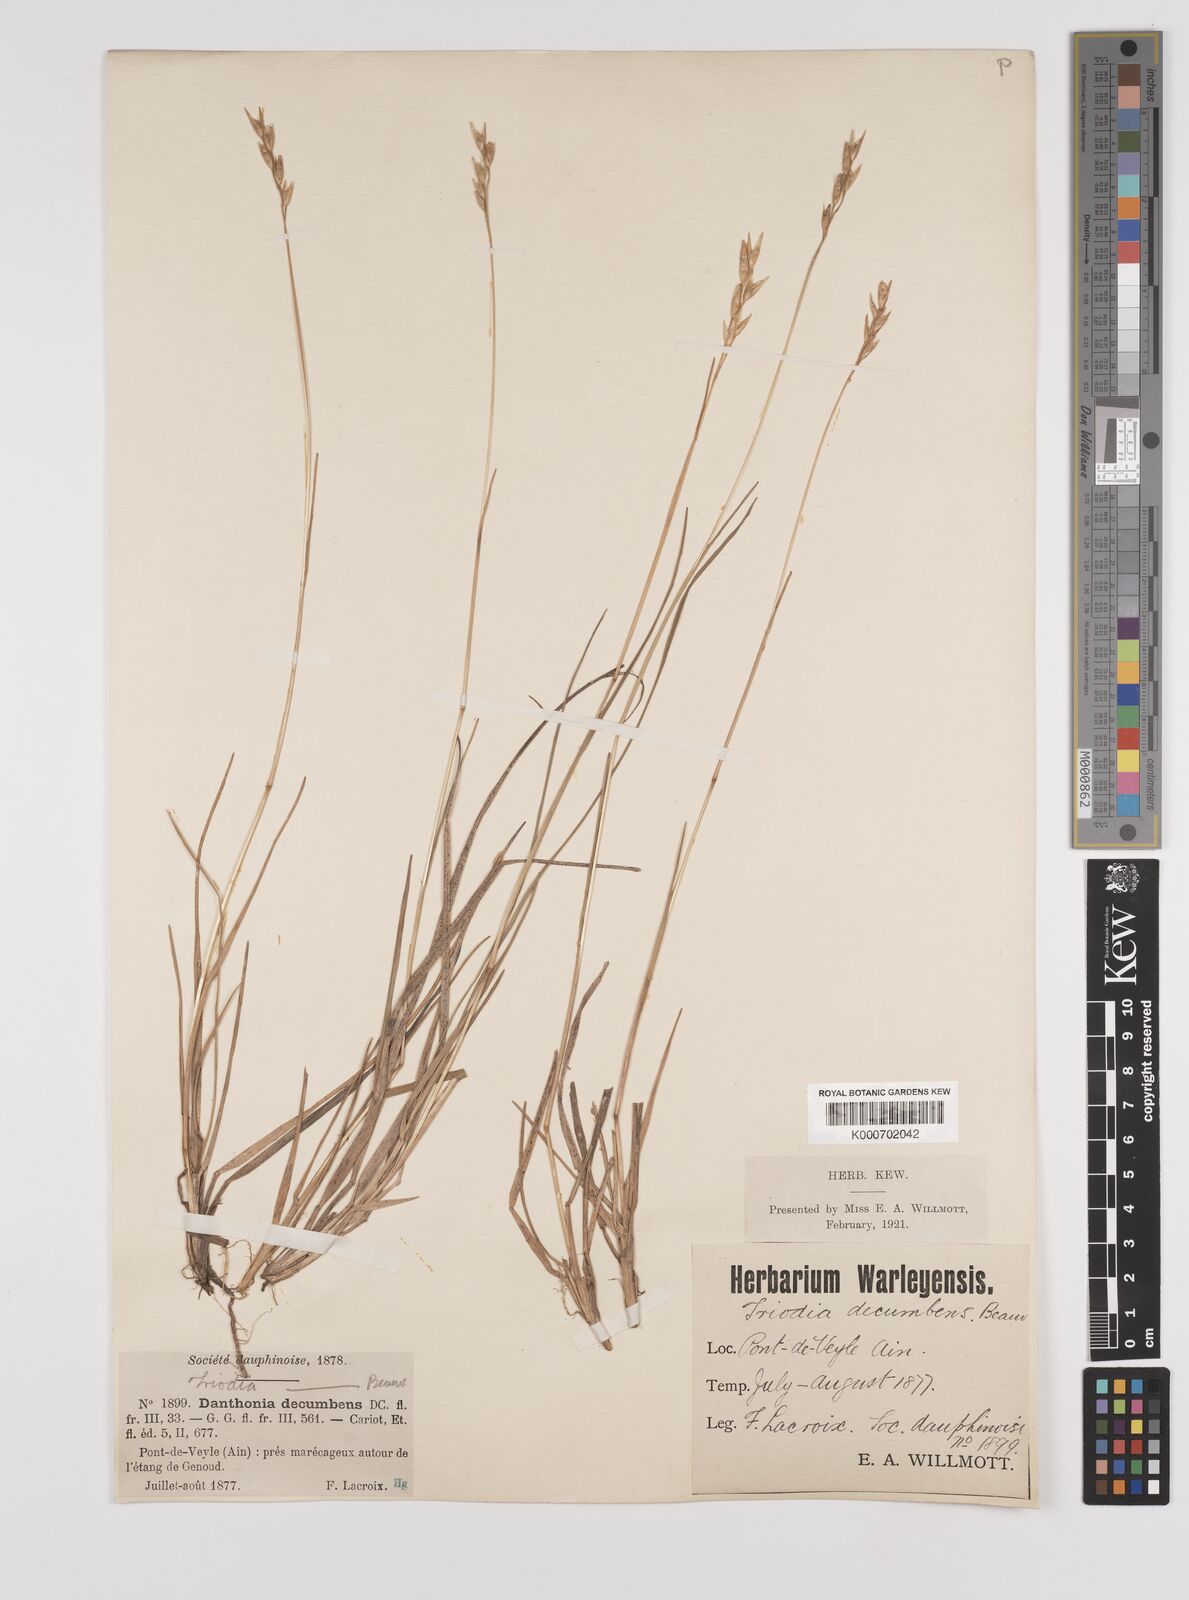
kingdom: Plantae
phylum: Tracheophyta
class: Liliopsida
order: Poales
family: Poaceae
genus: Danthonia
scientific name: Danthonia decumbens
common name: Common heathgrass
